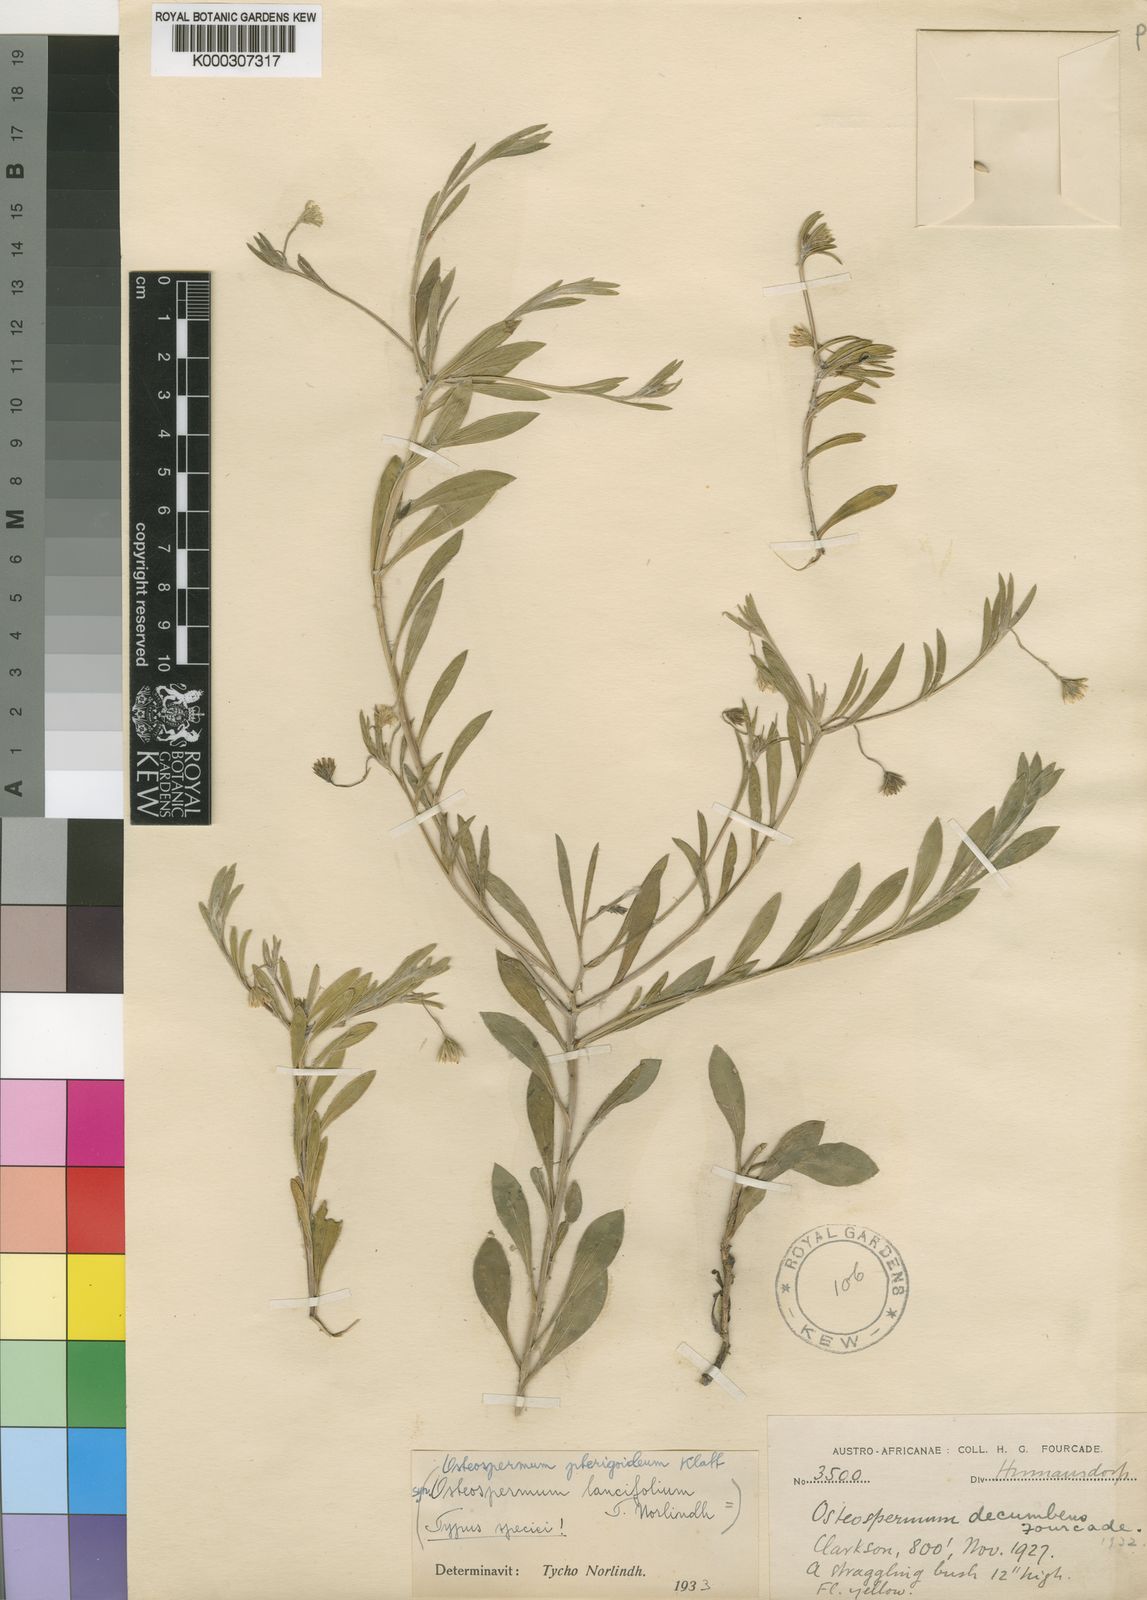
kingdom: Plantae
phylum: Tracheophyta
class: Magnoliopsida
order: Asterales
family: Asteraceae
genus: Osteospermum
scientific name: Osteospermum pterigoideum
